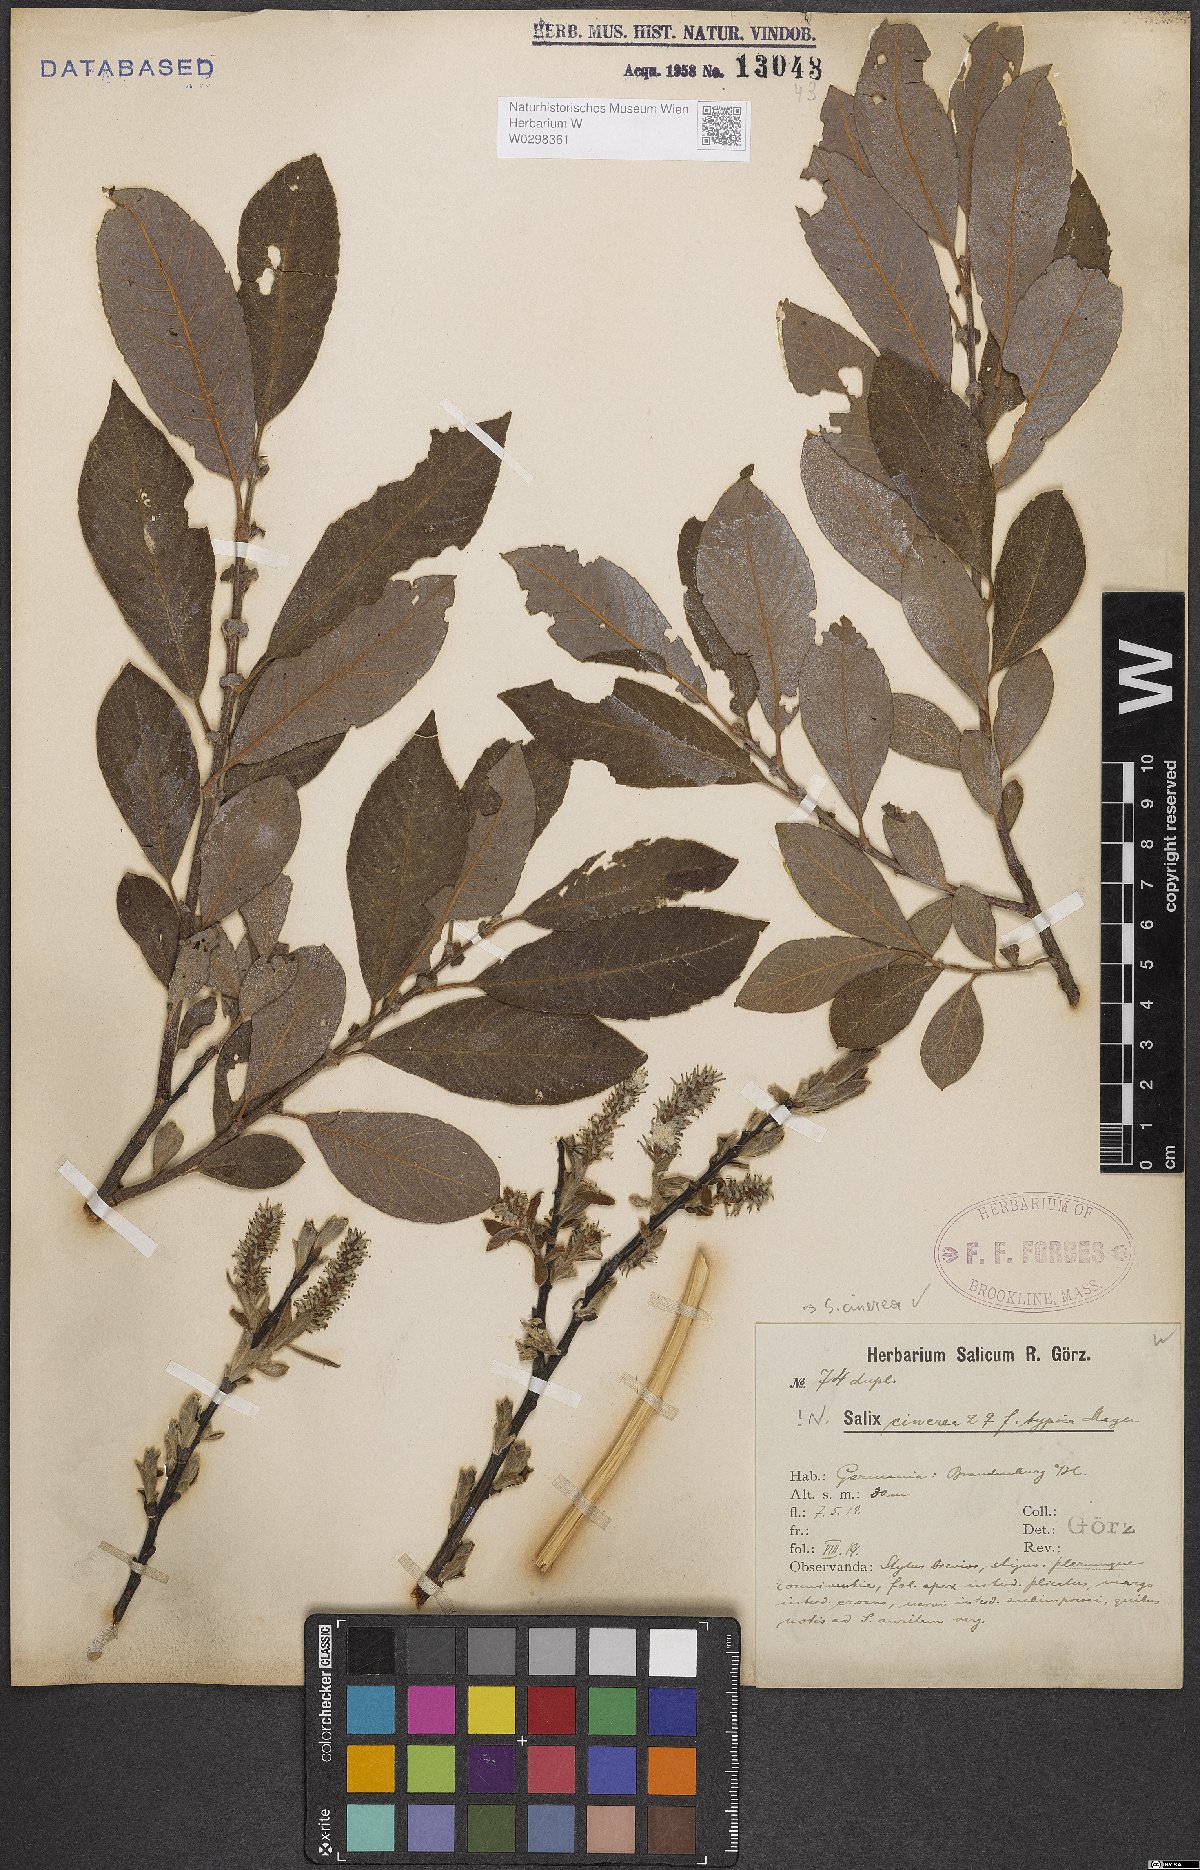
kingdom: Plantae
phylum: Tracheophyta
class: Magnoliopsida
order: Malpighiales
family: Salicaceae
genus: Salix
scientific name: Salix cinerea
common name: Common sallow
